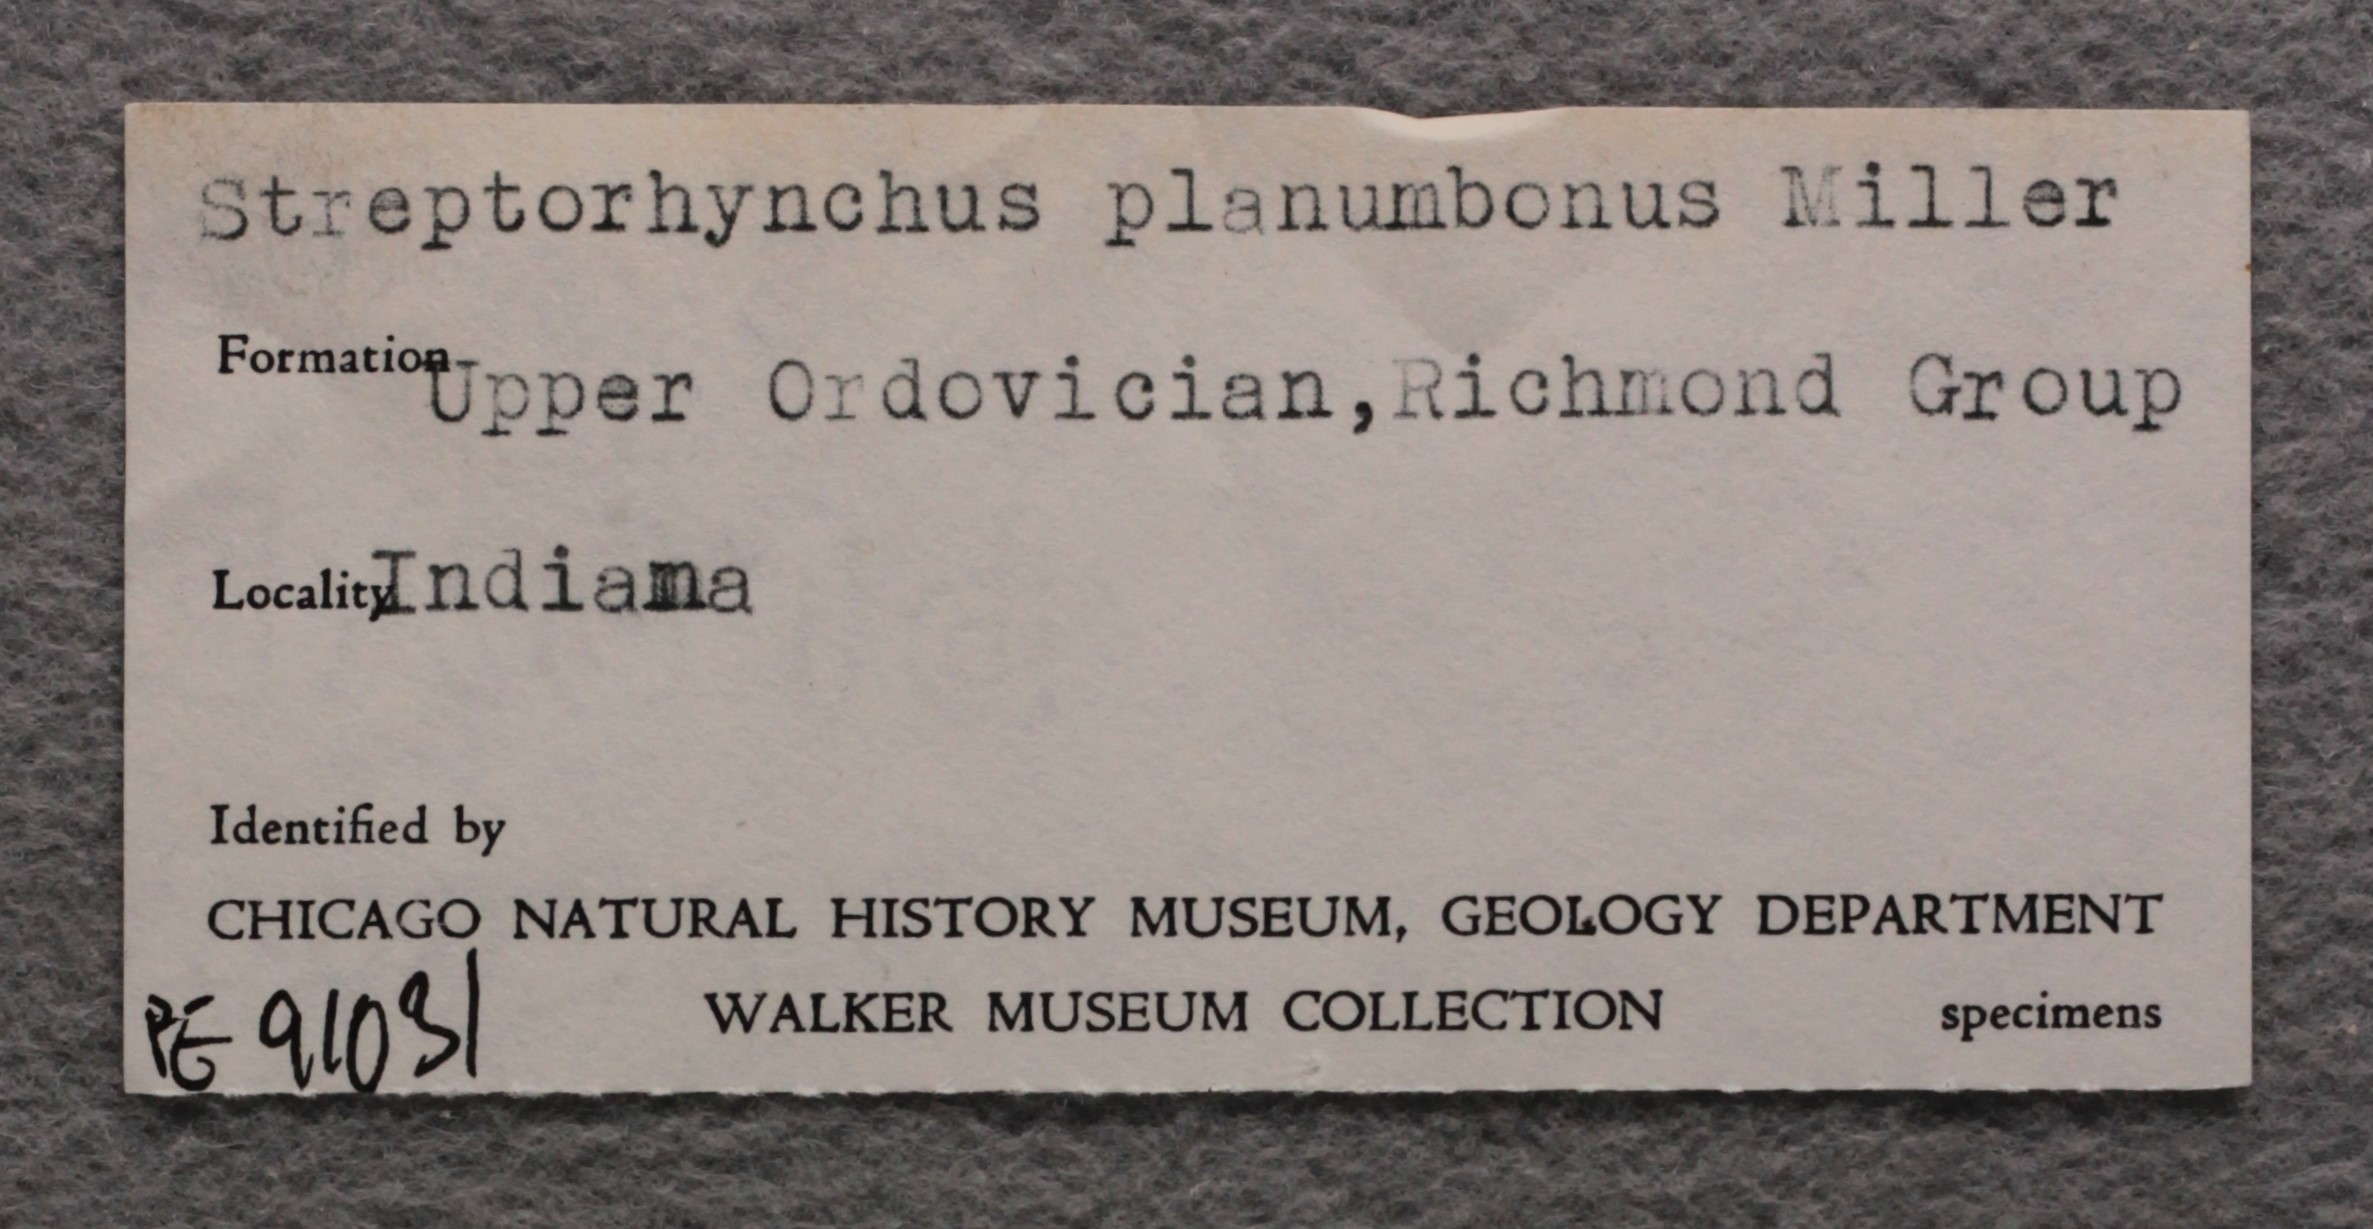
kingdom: Animalia
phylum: Brachiopoda
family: Streptorhynchidae
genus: Streptorhynchus
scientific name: Streptorhynchus
